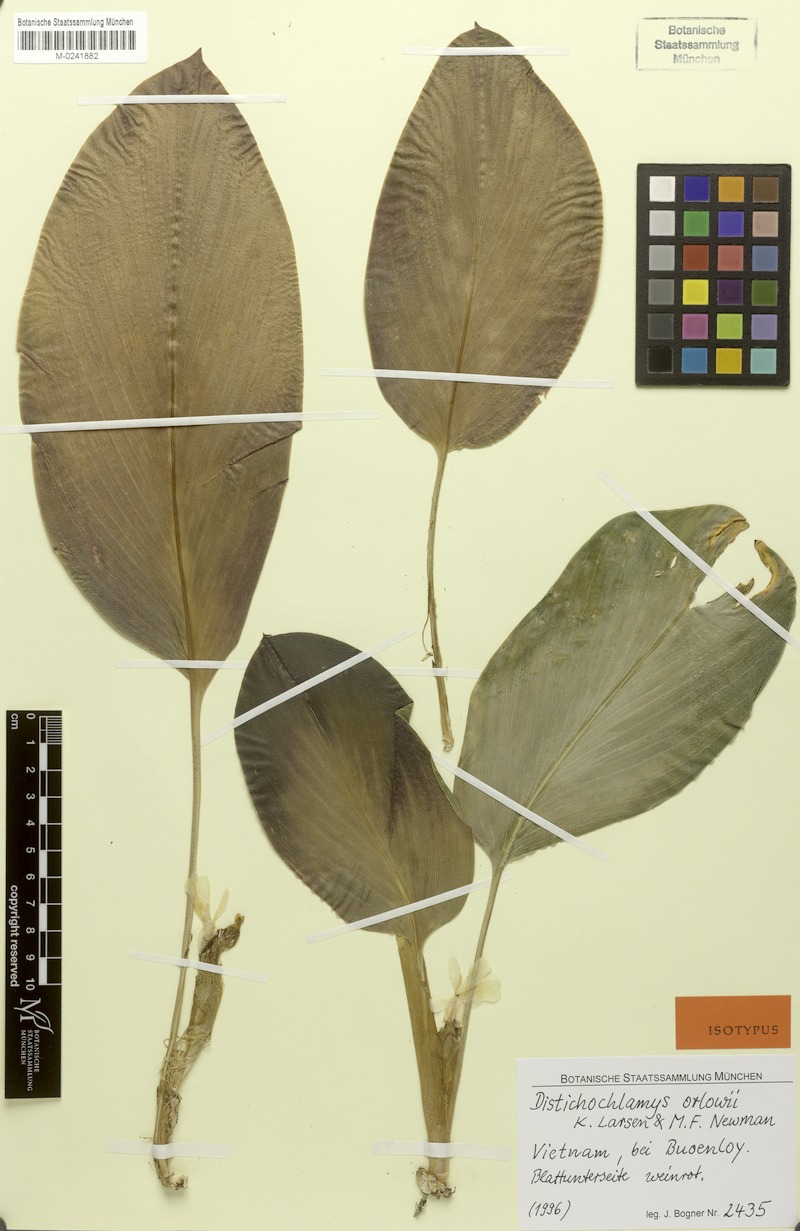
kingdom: Plantae
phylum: Tracheophyta
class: Liliopsida
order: Zingiberales
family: Zingiberaceae
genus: Distichochlamys
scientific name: Distichochlamys orlowii
